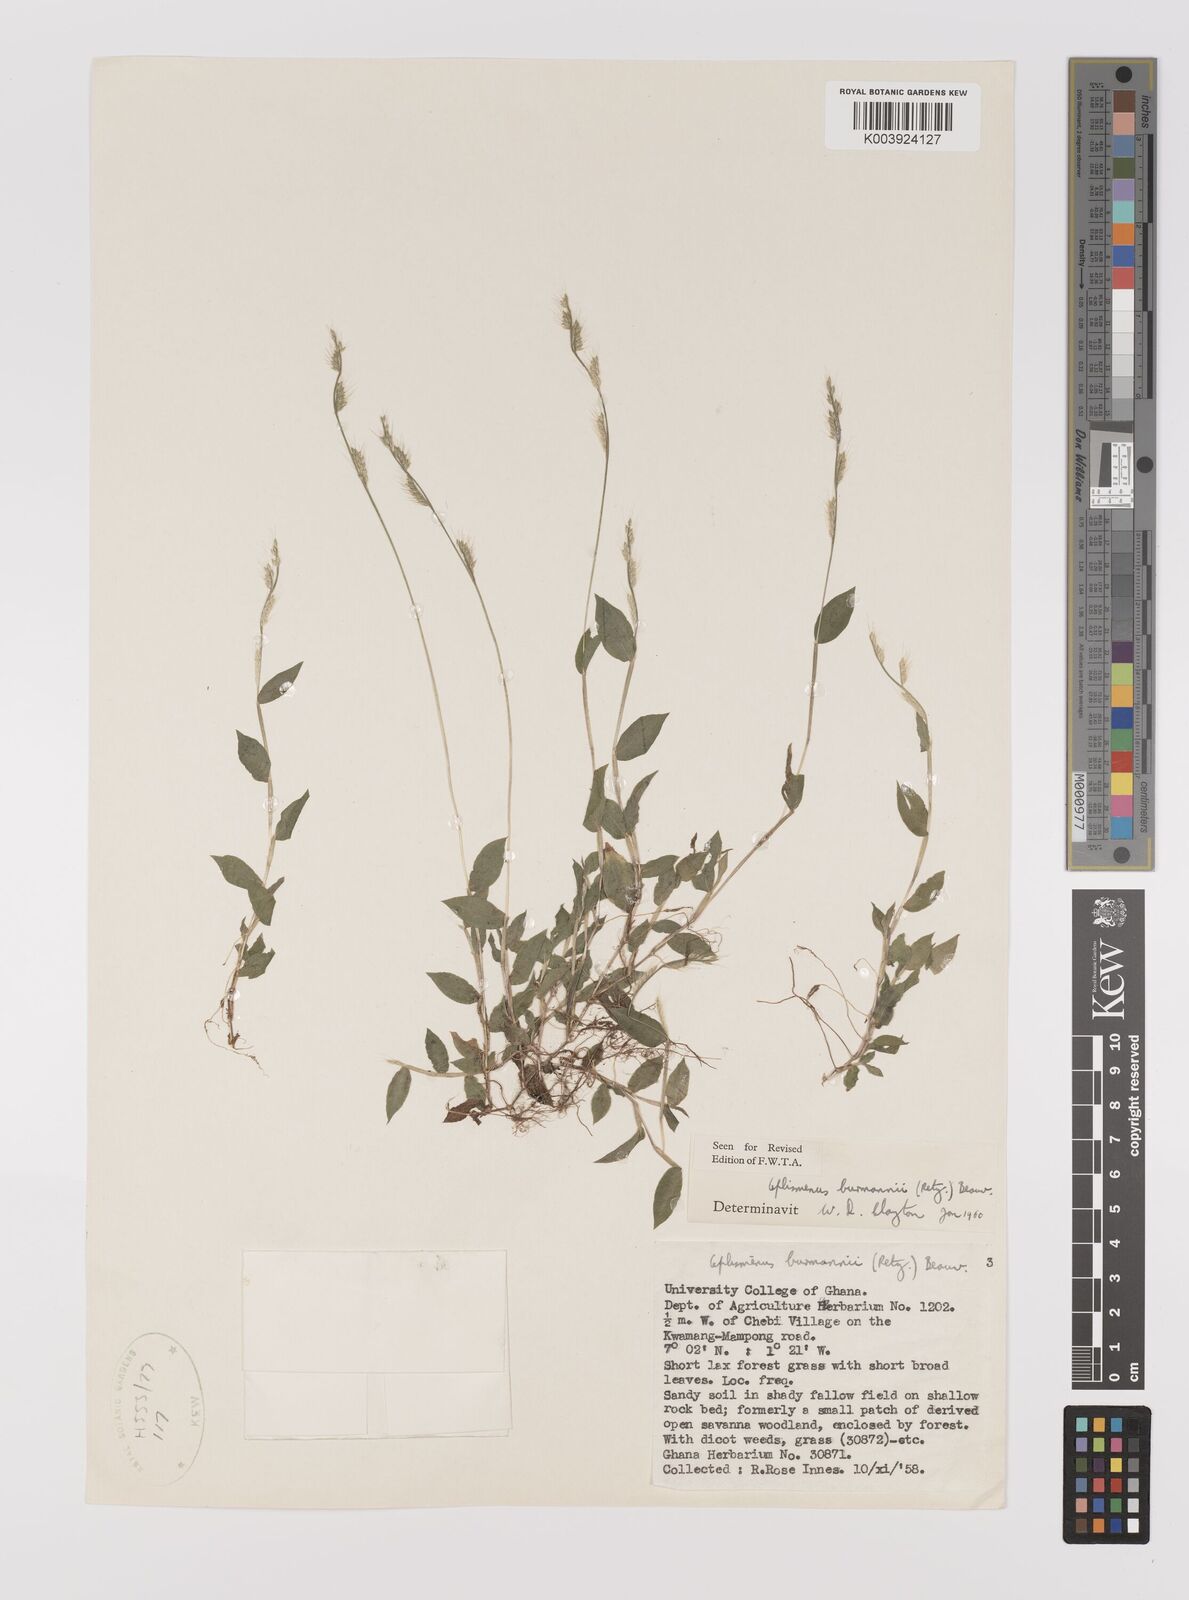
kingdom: Plantae
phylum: Tracheophyta
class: Liliopsida
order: Poales
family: Poaceae
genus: Oplismenus
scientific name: Oplismenus burmanni
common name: Burmann's basketgrass
